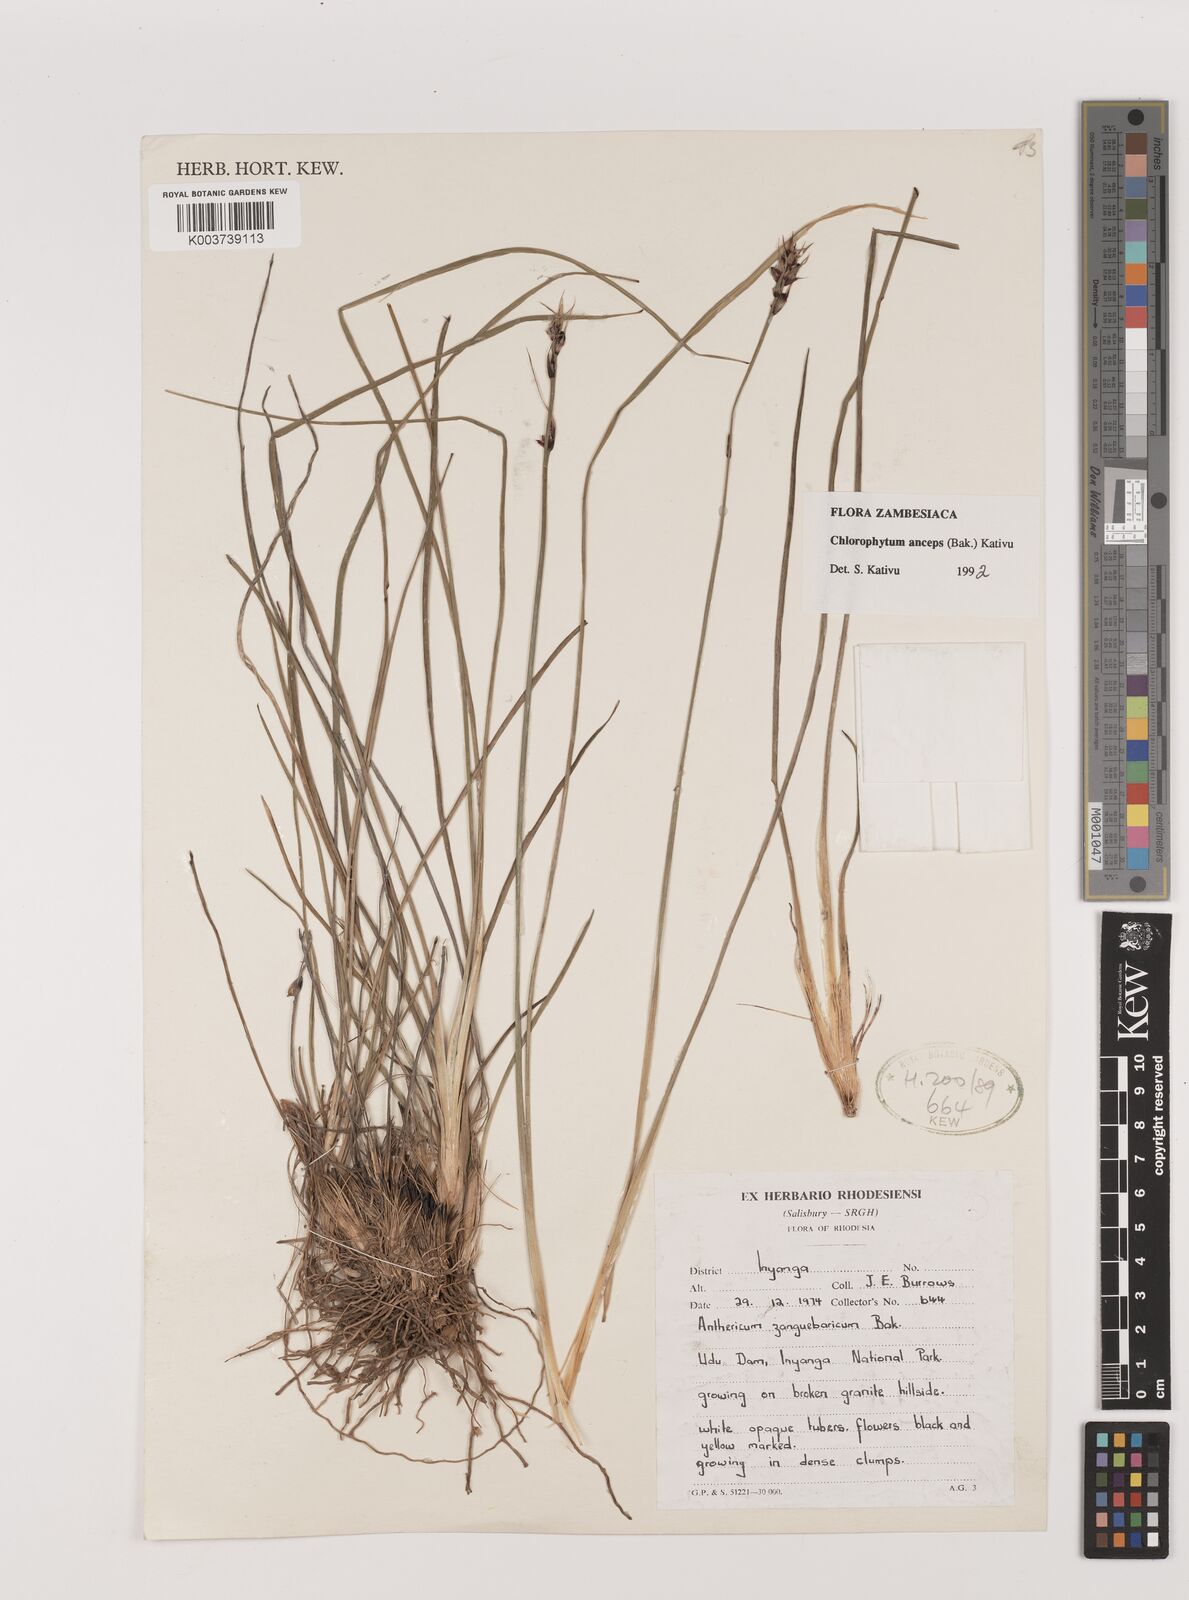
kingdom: Plantae
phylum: Tracheophyta
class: Liliopsida
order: Asparagales
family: Asparagaceae
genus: Chlorophytum
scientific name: Chlorophytum anceps
